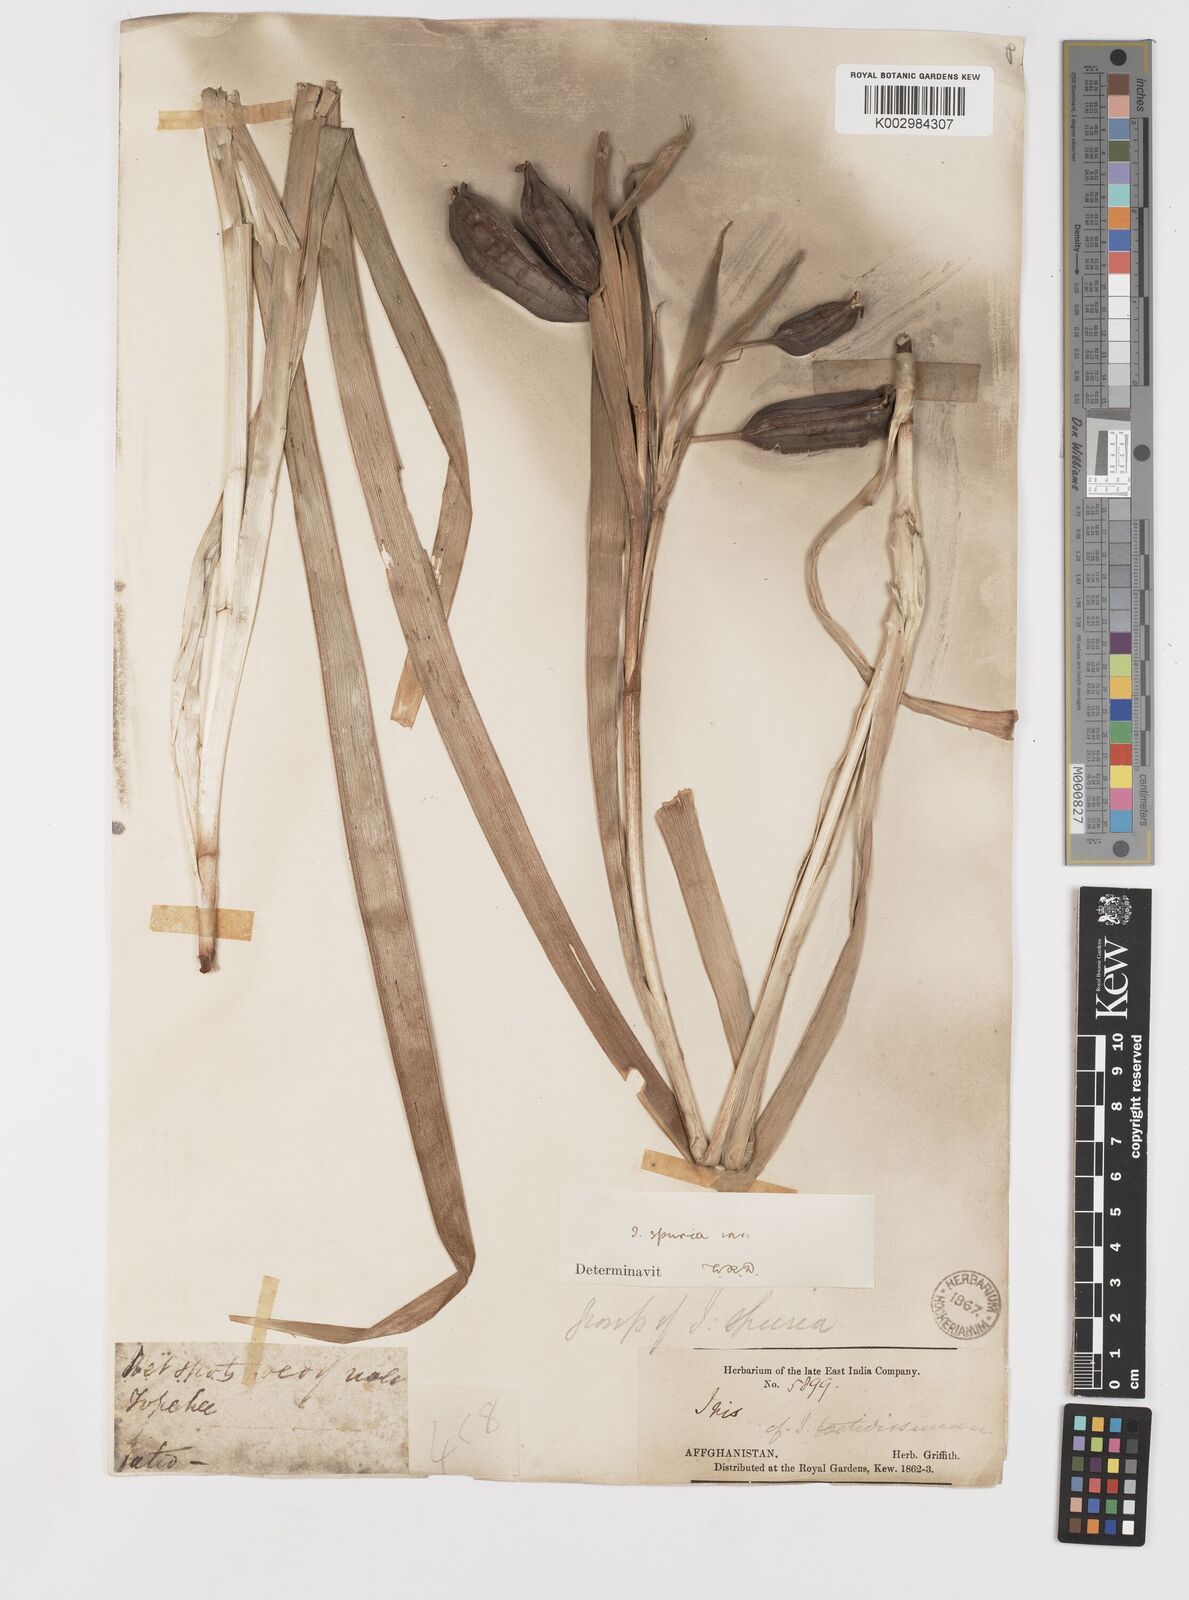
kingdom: Plantae
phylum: Tracheophyta
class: Liliopsida
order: Asparagales
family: Iridaceae
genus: Iris
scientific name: Iris spuria
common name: Blue iris
